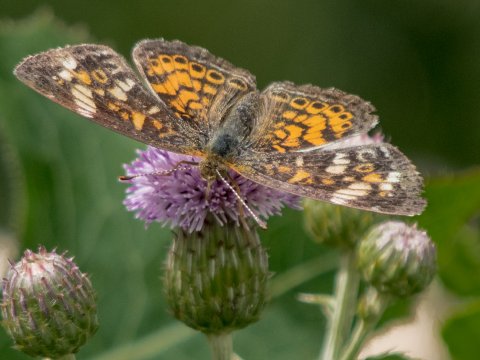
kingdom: Animalia
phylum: Arthropoda
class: Insecta
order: Lepidoptera
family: Nymphalidae
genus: Phyciodes
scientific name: Phyciodes tharos
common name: Pearl Crescent
